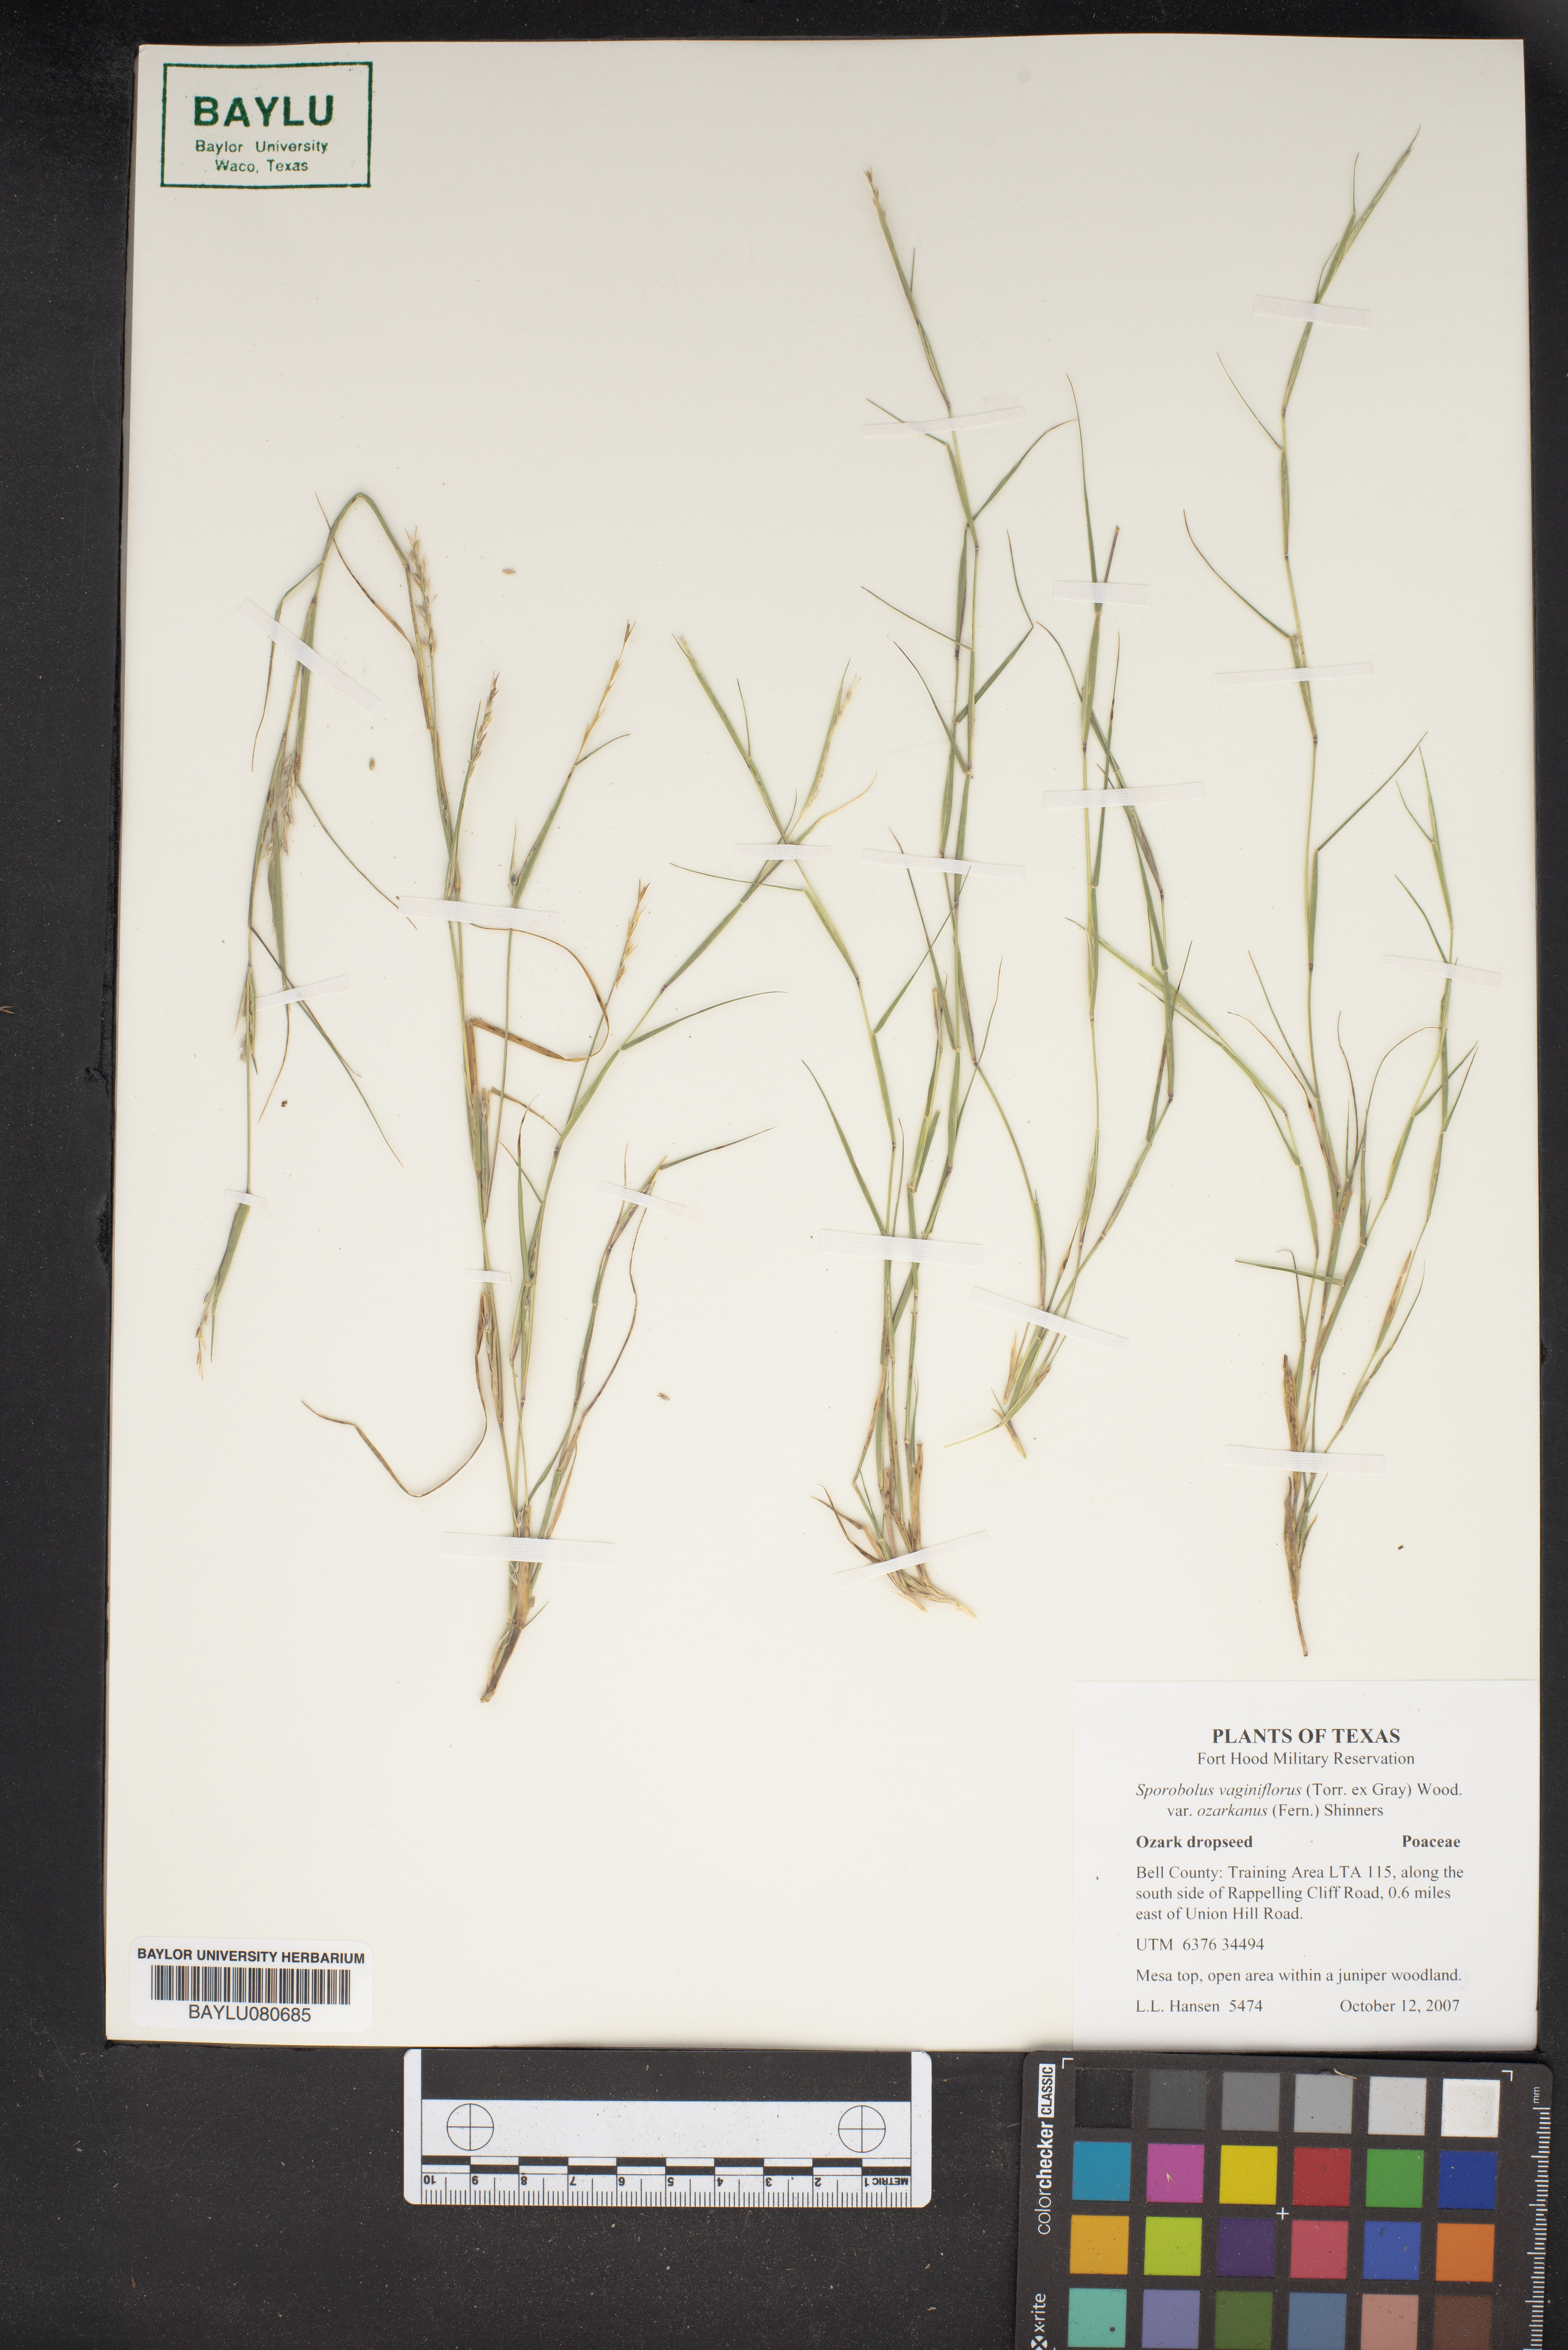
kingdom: Plantae
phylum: Tracheophyta
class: Liliopsida
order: Poales
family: Poaceae
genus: Sporobolus
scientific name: Sporobolus neglectus
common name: Annual dropseed
